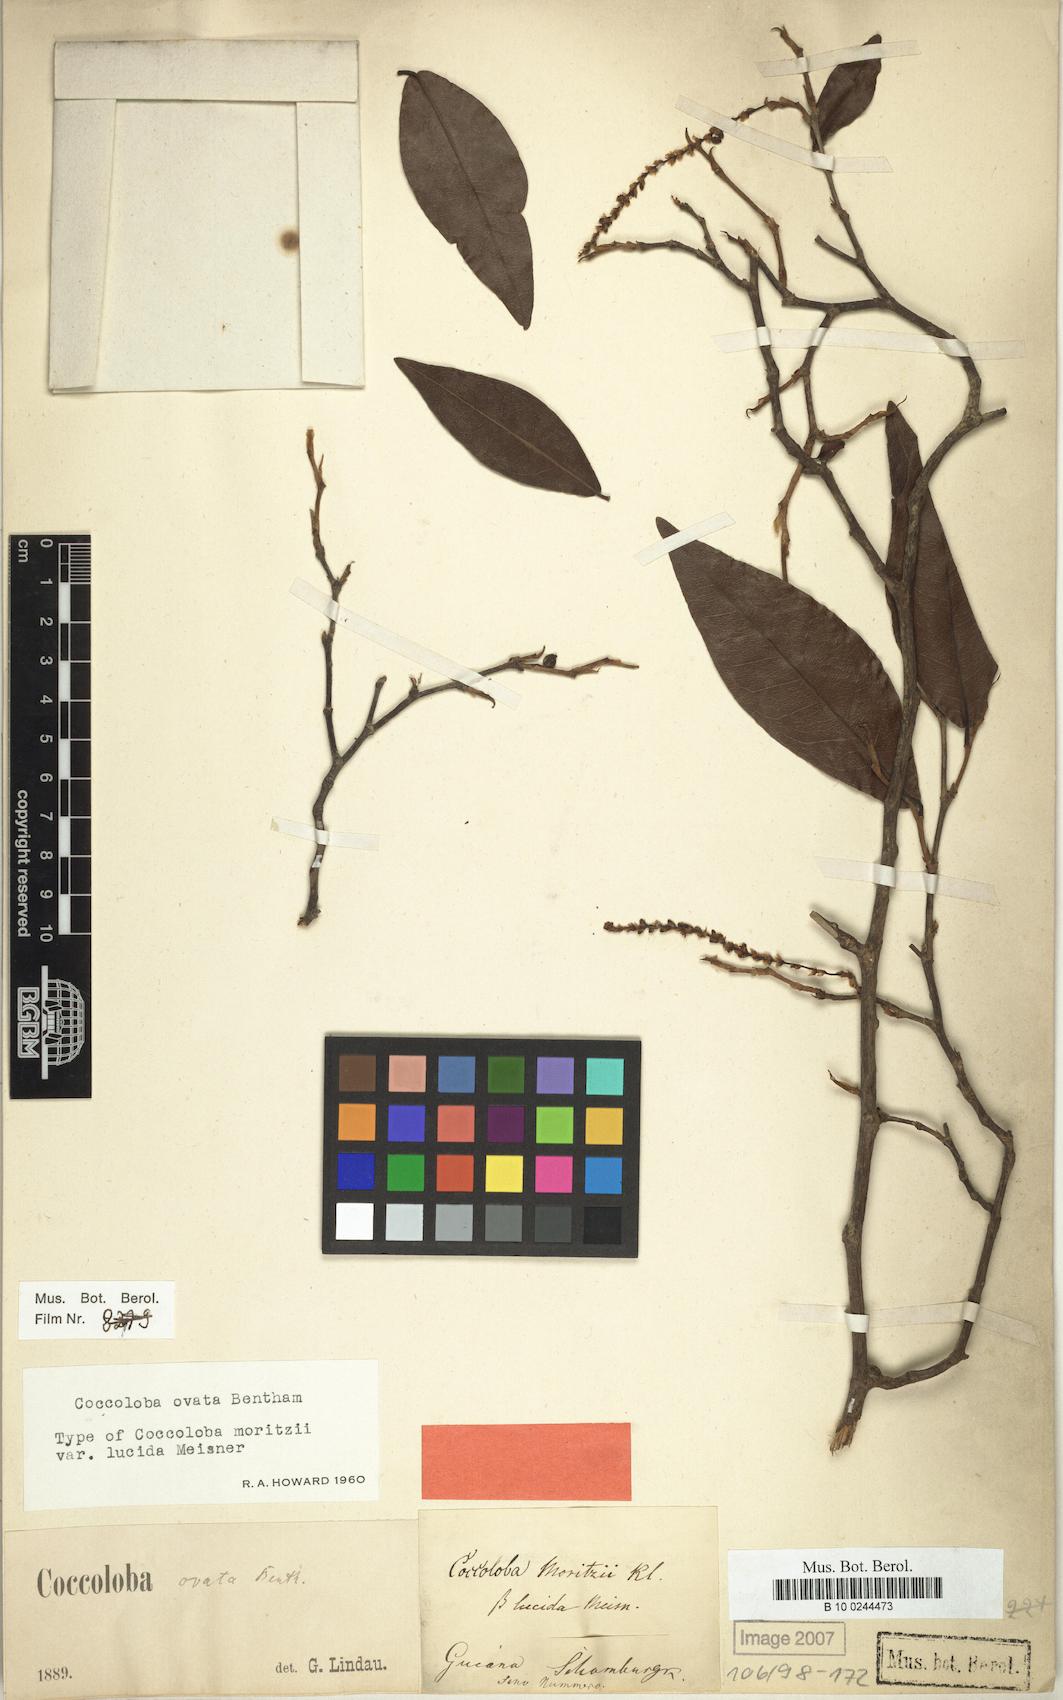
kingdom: Plantae
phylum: Tracheophyta
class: Magnoliopsida
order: Caryophyllales
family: Polygonaceae
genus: Coccoloba
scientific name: Coccoloba ovata
